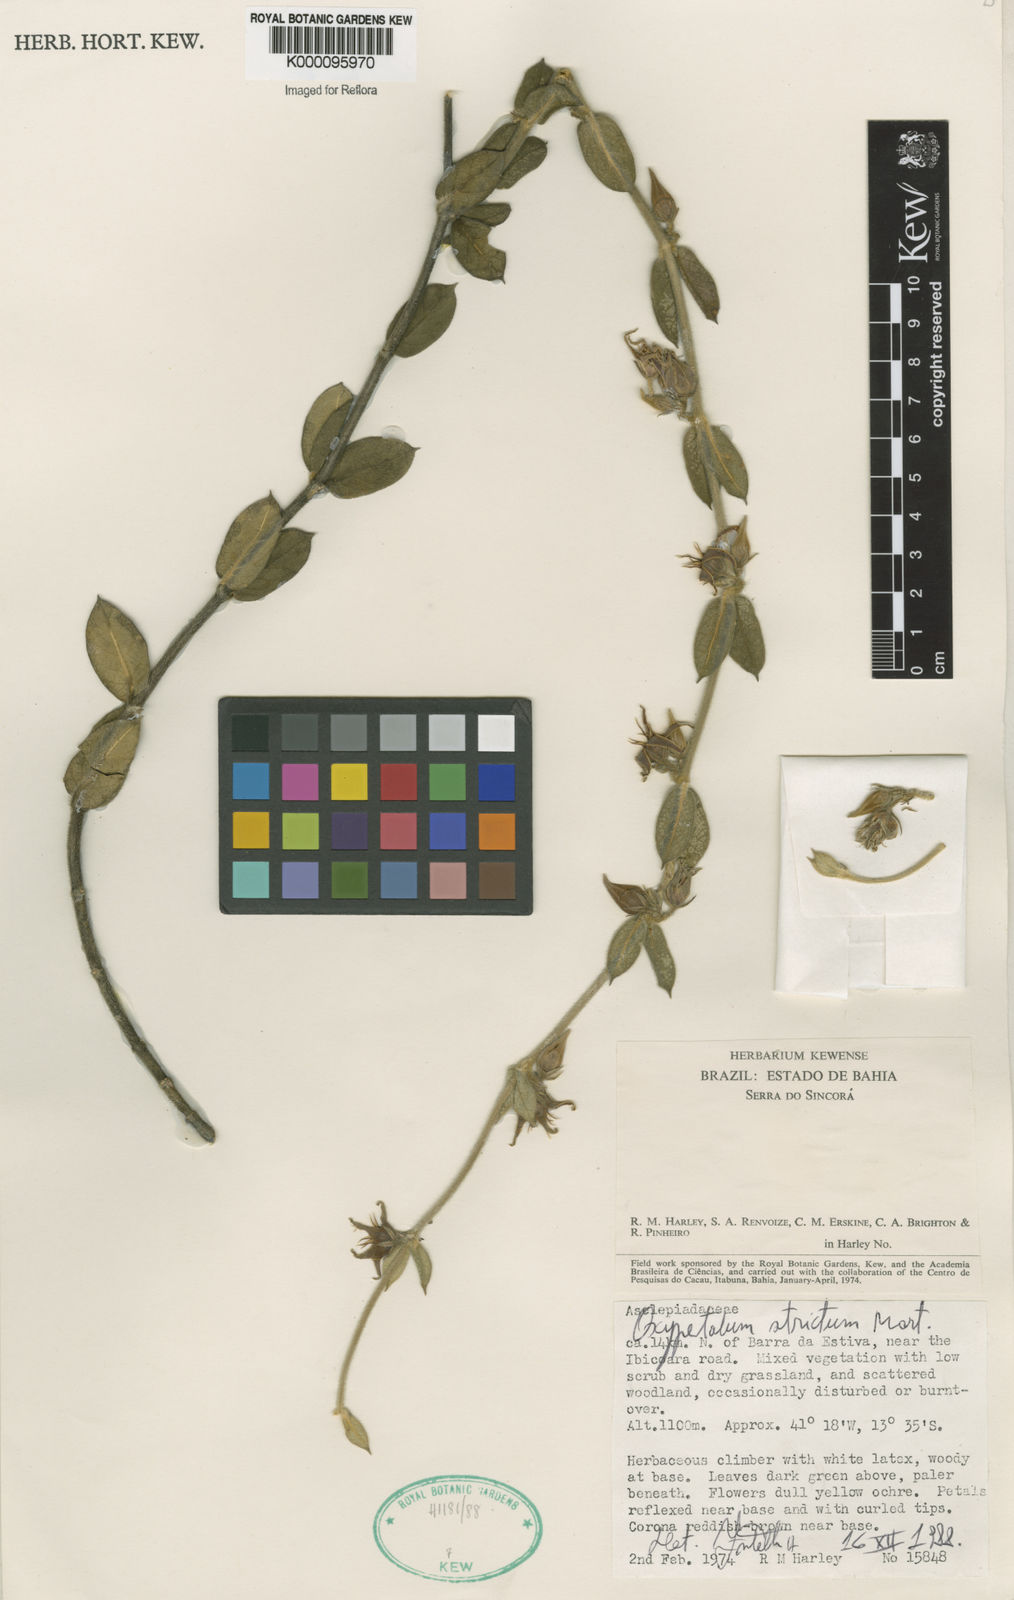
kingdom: Plantae
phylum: Tracheophyta
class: Magnoliopsida
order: Gentianales
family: Apocynaceae
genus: Oxypetalum
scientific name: Oxypetalum strictum
